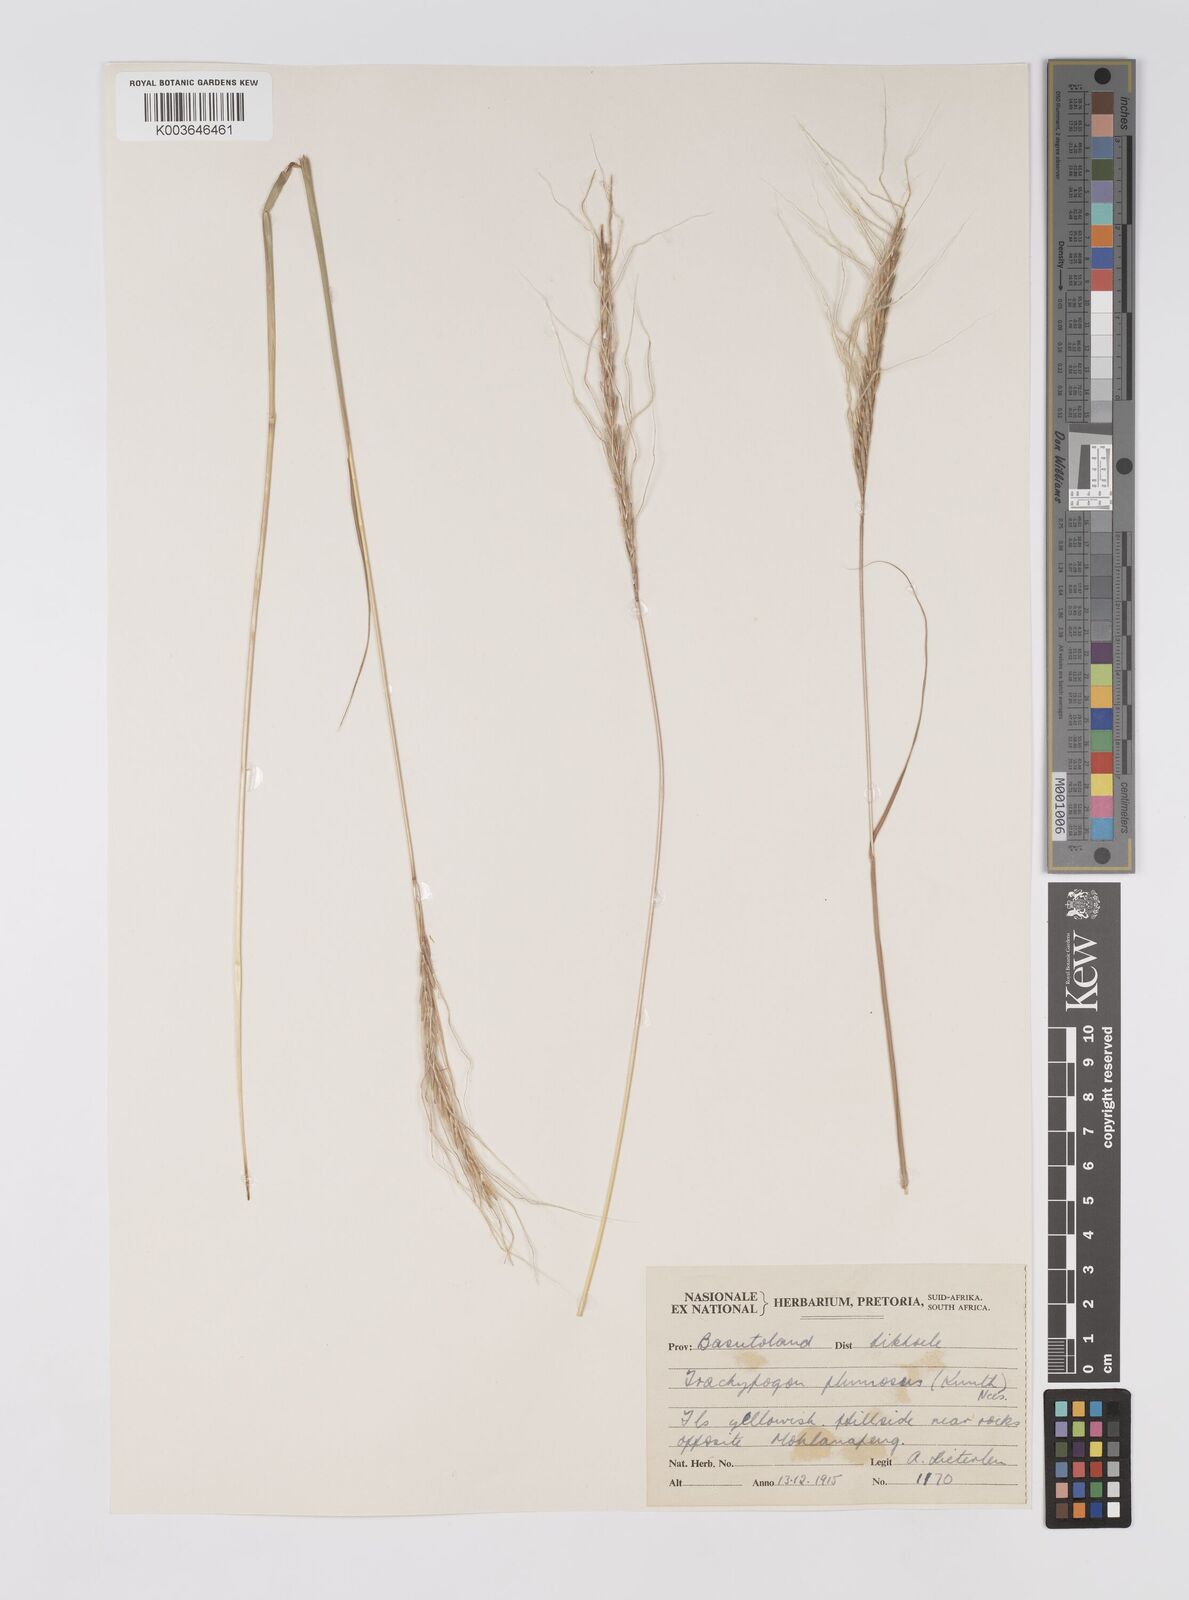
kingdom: Plantae
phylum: Tracheophyta
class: Liliopsida
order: Poales
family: Poaceae
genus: Trachypogon
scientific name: Trachypogon spicatus
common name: Crinkle-awn
